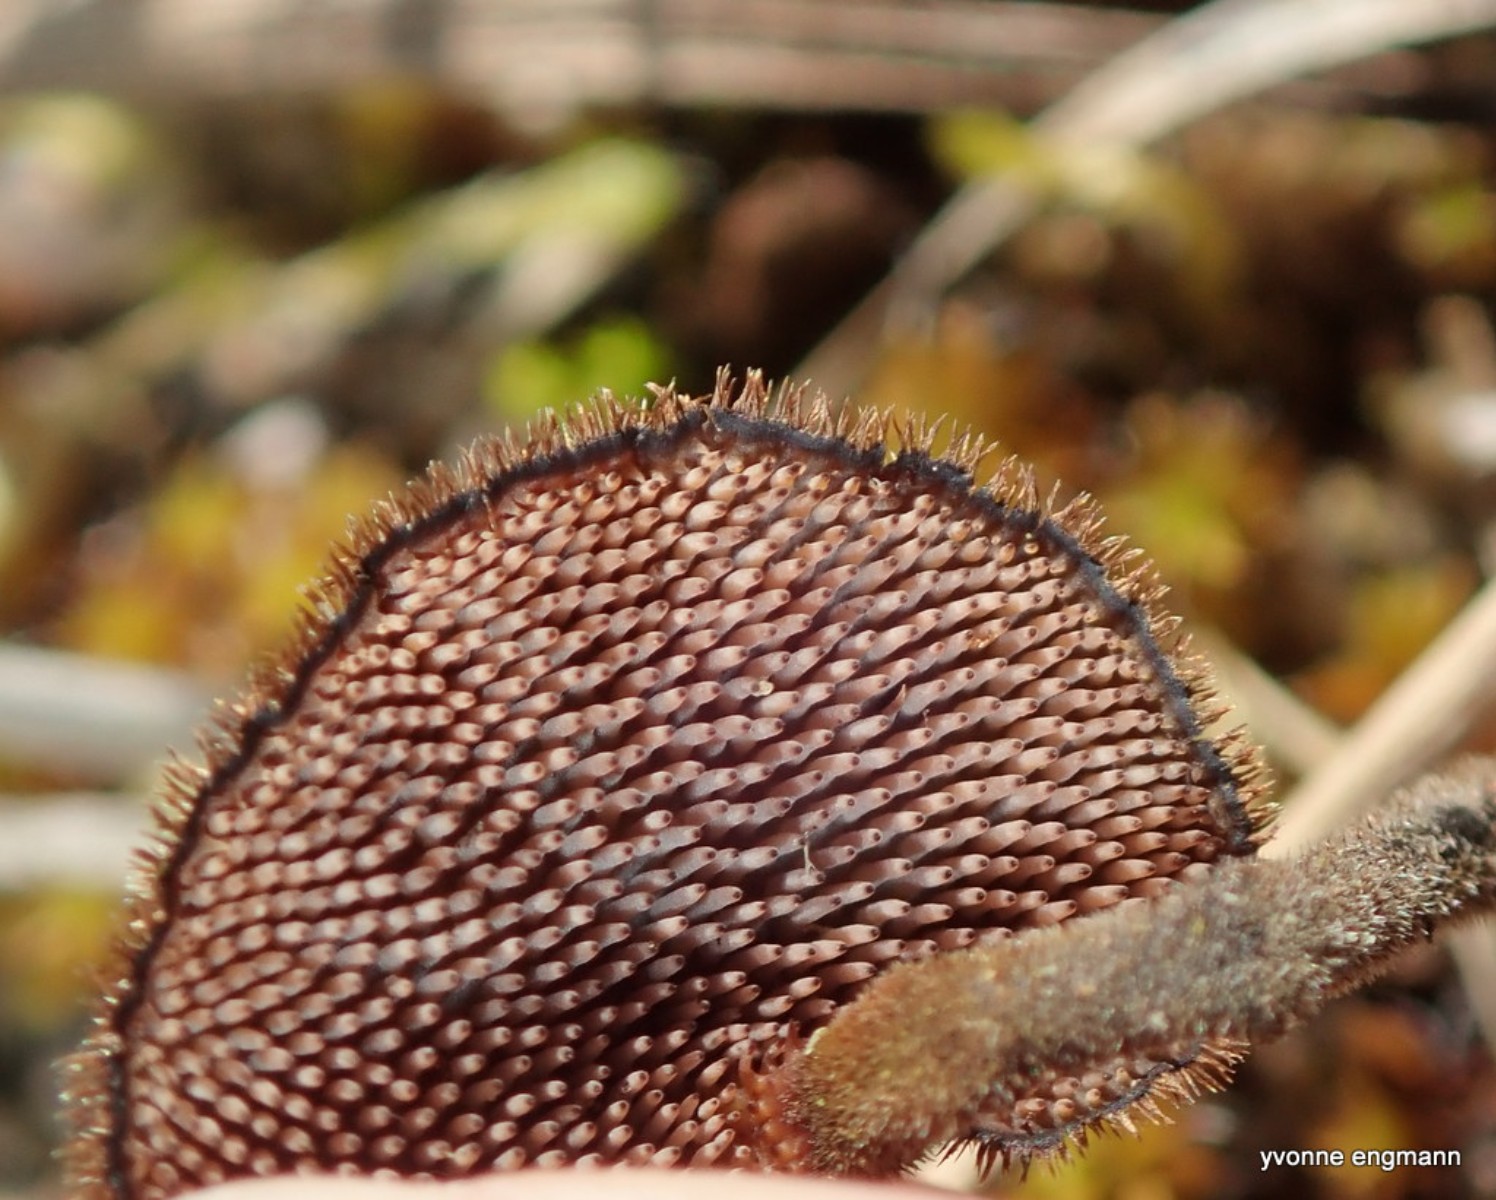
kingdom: Fungi
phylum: Basidiomycota
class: Agaricomycetes
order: Russulales
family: Auriscalpiaceae
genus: Auriscalpium
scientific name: Auriscalpium vulgare
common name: koglepigsvamp
